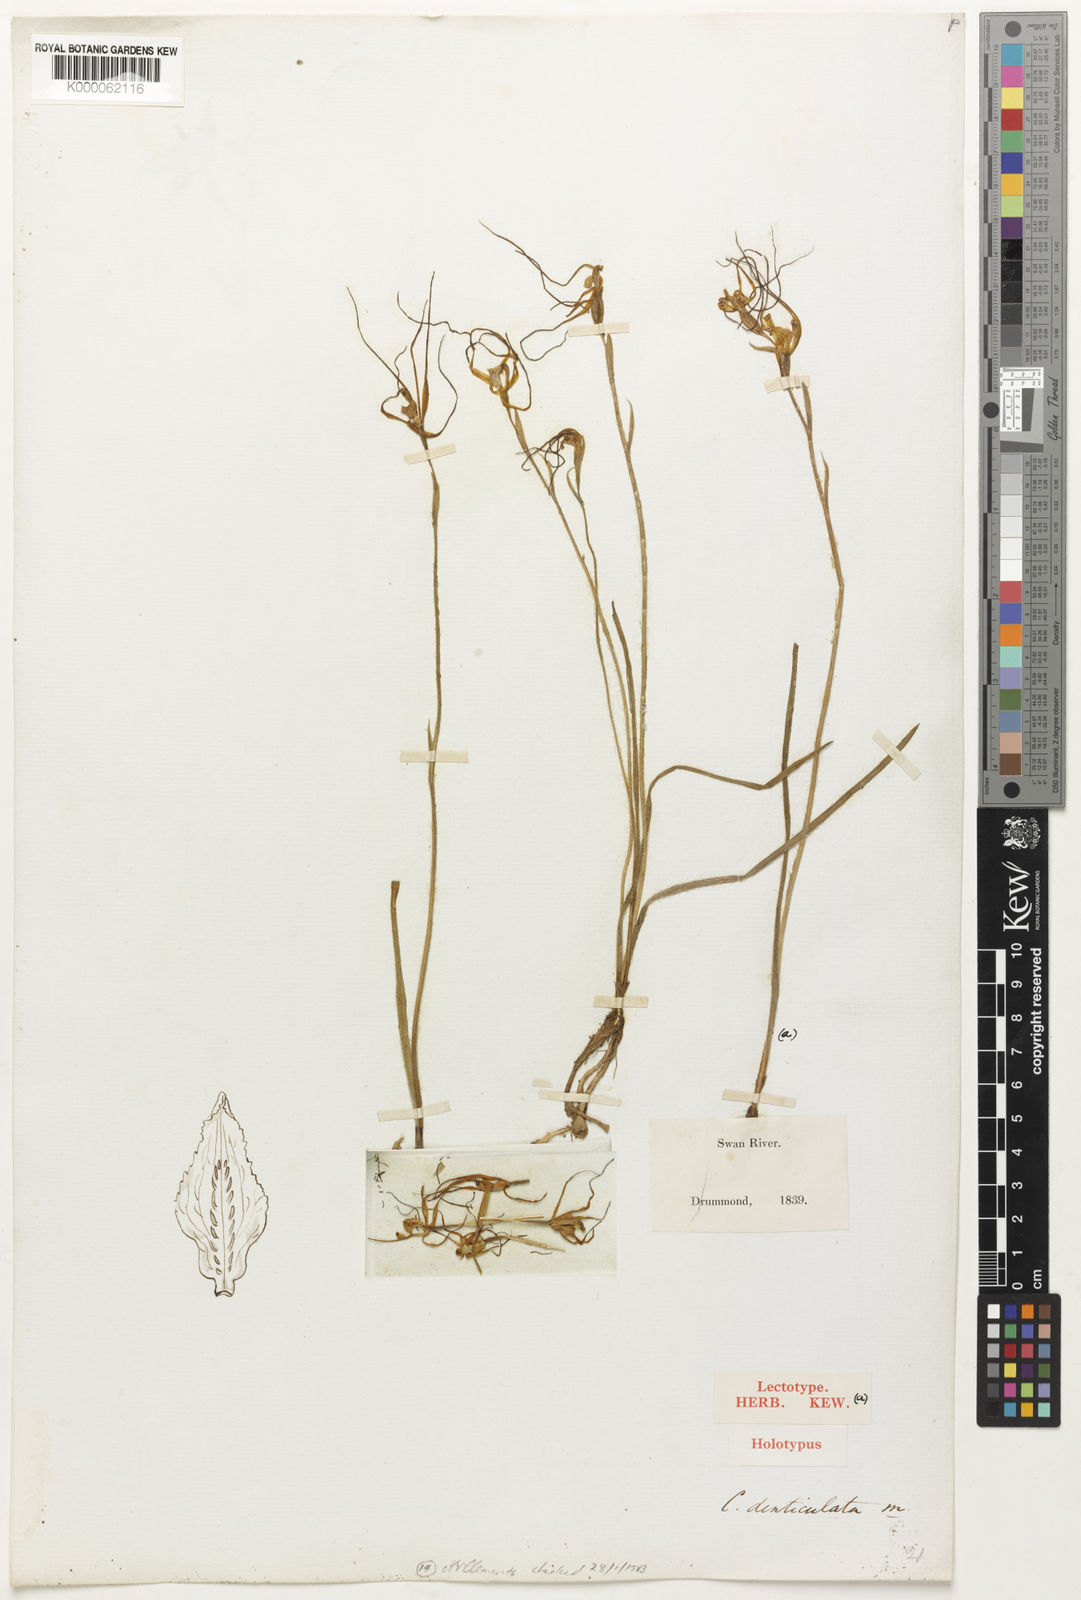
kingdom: Plantae
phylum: Tracheophyta
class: Liliopsida
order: Asparagales
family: Orchidaceae
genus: Caladenia
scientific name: Caladenia denticulata
